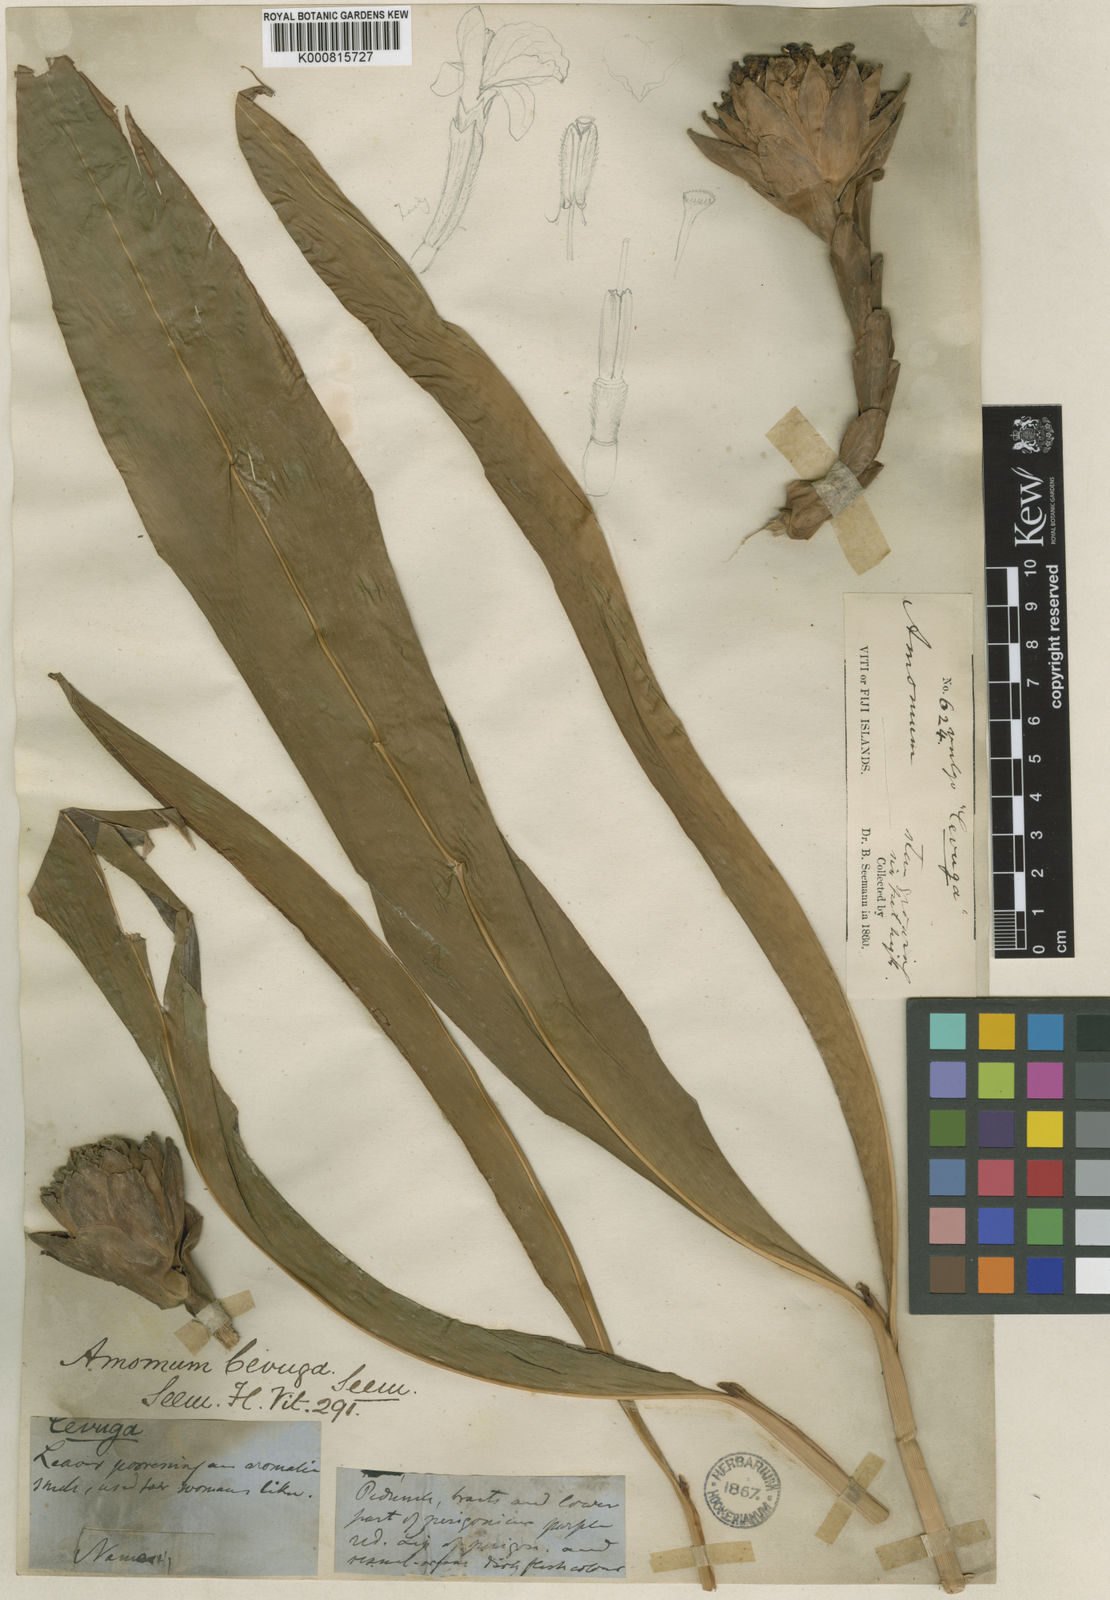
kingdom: Plantae
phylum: Tracheophyta
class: Liliopsida
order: Zingiberales
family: Zingiberaceae
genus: Etlingera
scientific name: Etlingera cevuga
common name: Waxflower
